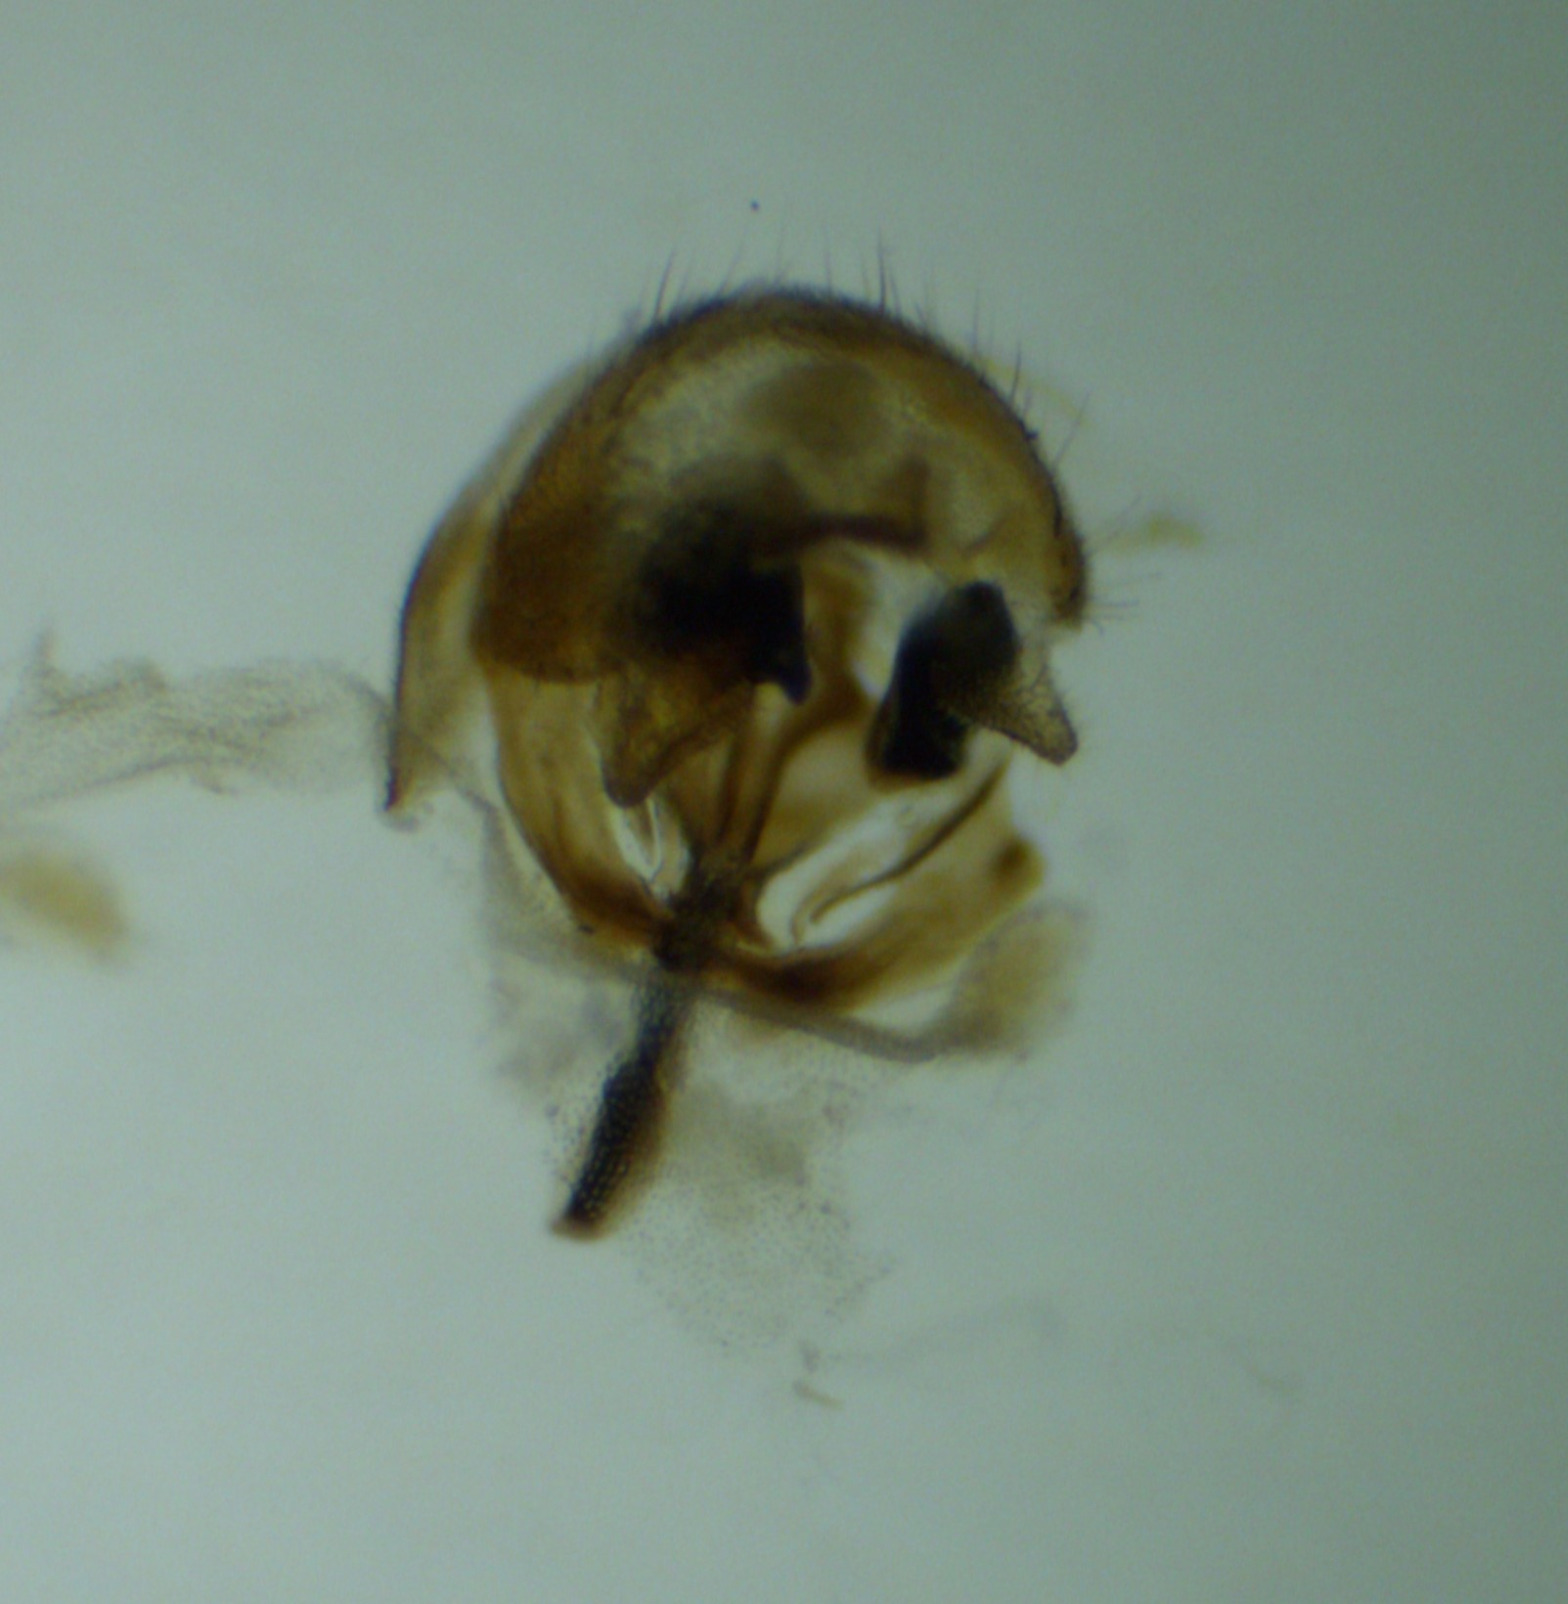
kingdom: Animalia
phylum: Arthropoda
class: Insecta
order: Diptera
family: Chloropidae
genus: Meromyza
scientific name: Meromyza saltatrix
